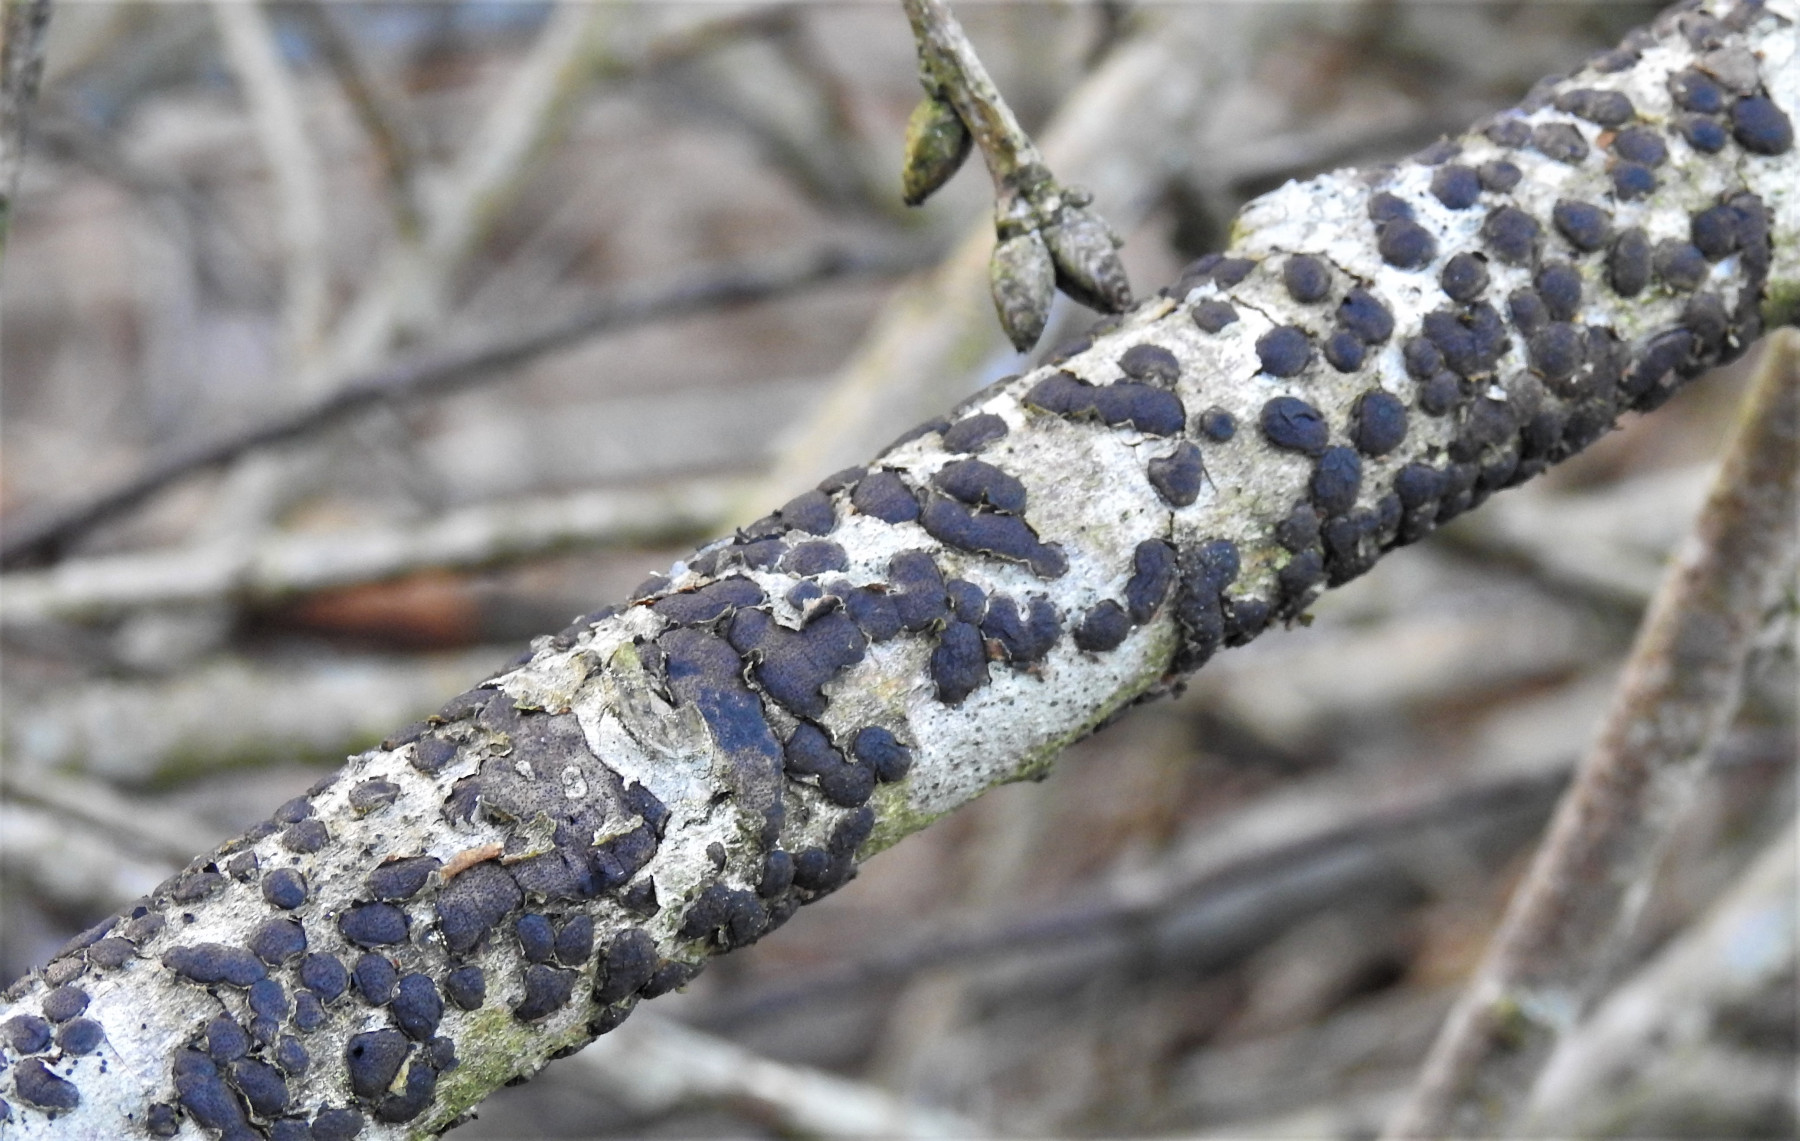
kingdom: Fungi
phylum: Ascomycota
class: Sordariomycetes
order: Xylariales
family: Diatrypaceae
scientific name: Diatrypaceae
